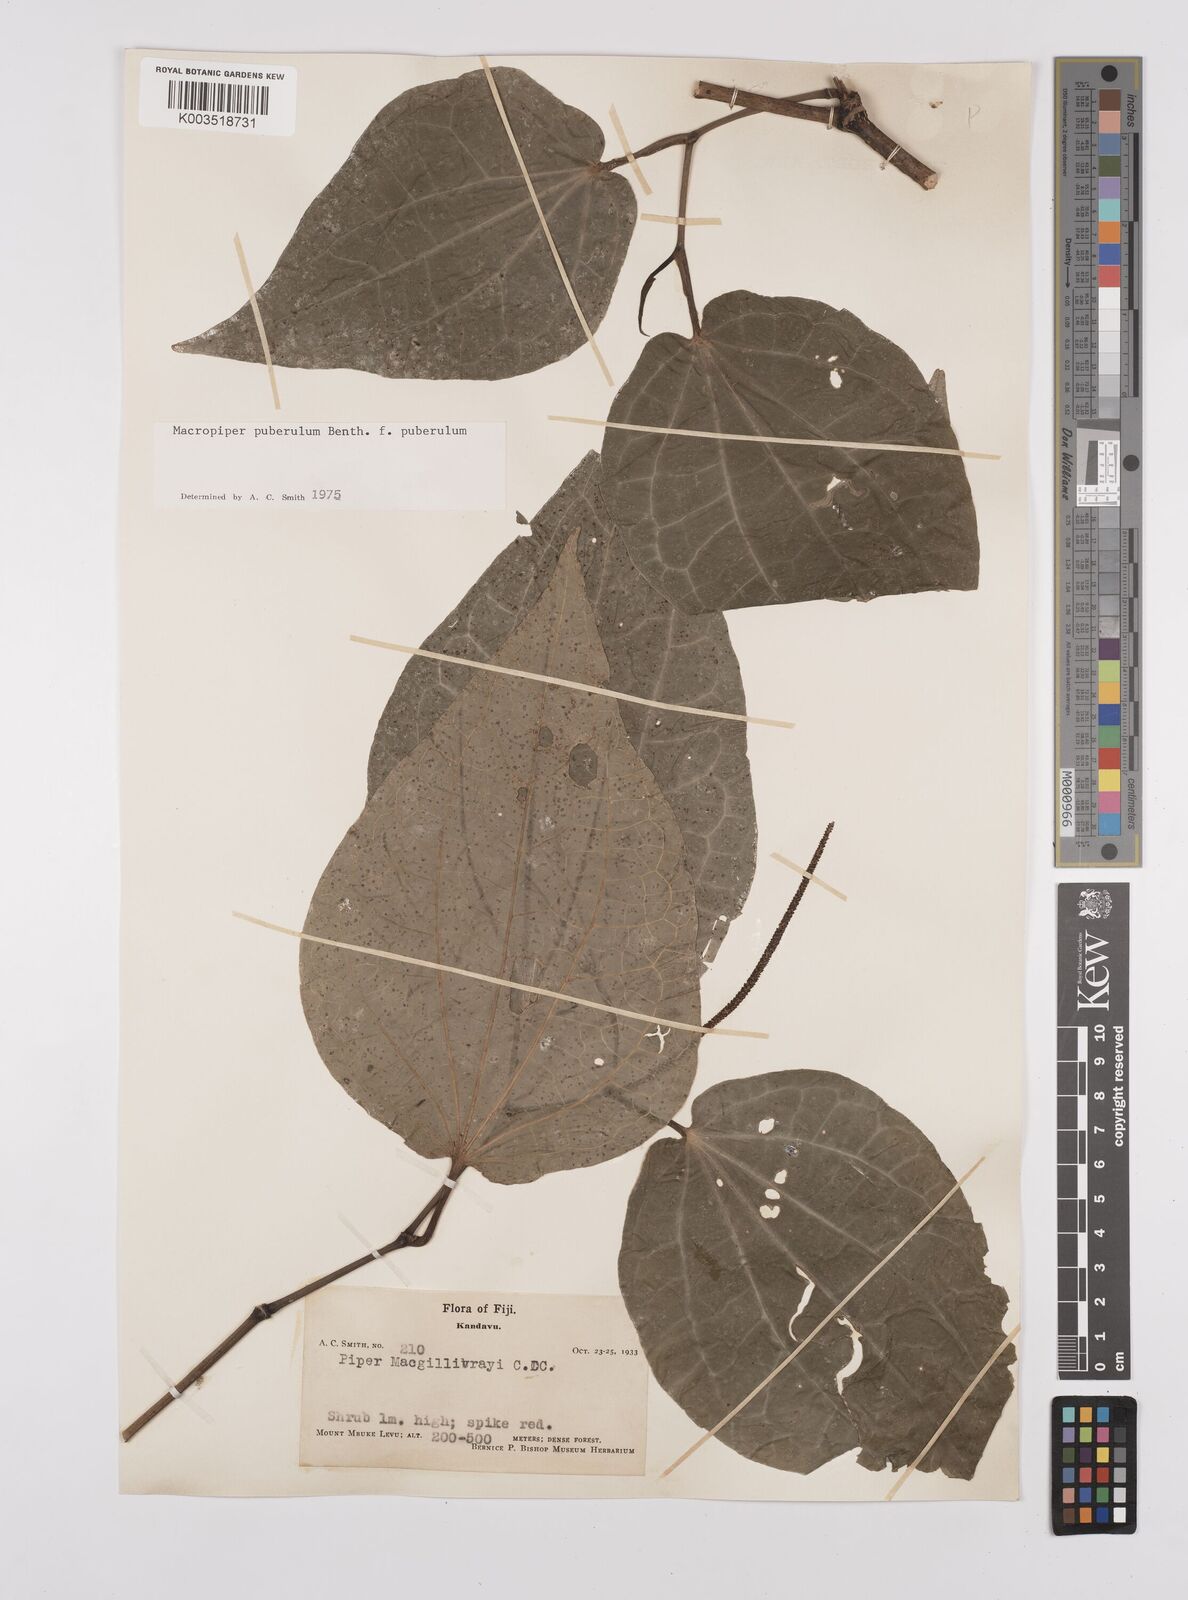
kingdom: Plantae
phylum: Tracheophyta
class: Magnoliopsida
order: Piperales
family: Piperaceae
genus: Macropiper
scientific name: Macropiper puberulum
